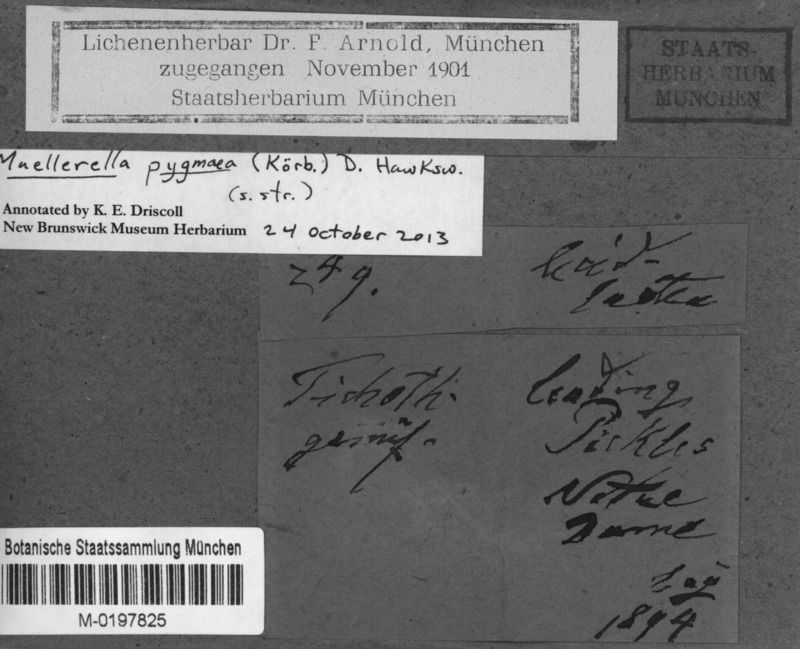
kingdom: Fungi
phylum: Ascomycota
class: Lecanoromycetes
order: Lecideales
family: Lecideaceae
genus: Lecidea
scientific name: Lecidea lapicida
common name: Gray-orange disk lichen
